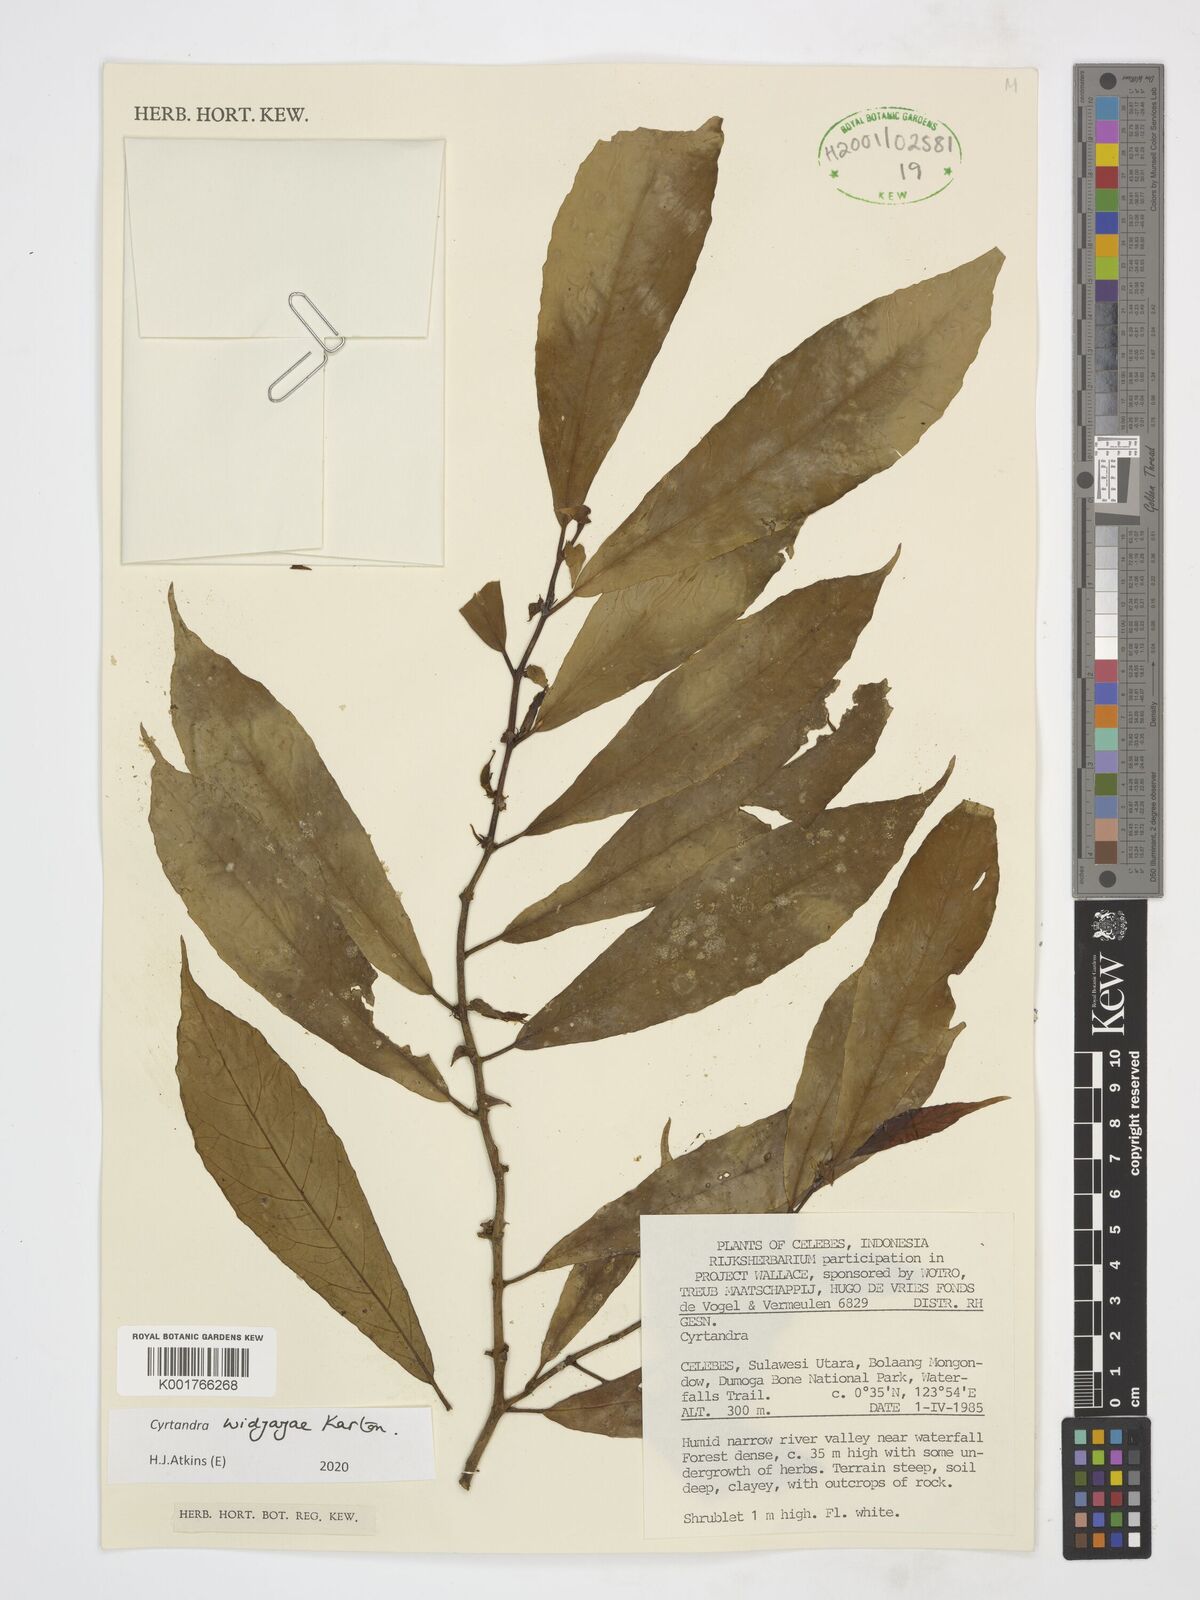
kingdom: Plantae
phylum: Tracheophyta
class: Magnoliopsida
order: Lamiales
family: Gesneriaceae
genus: Cyrtandra
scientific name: Cyrtandra widjajae
